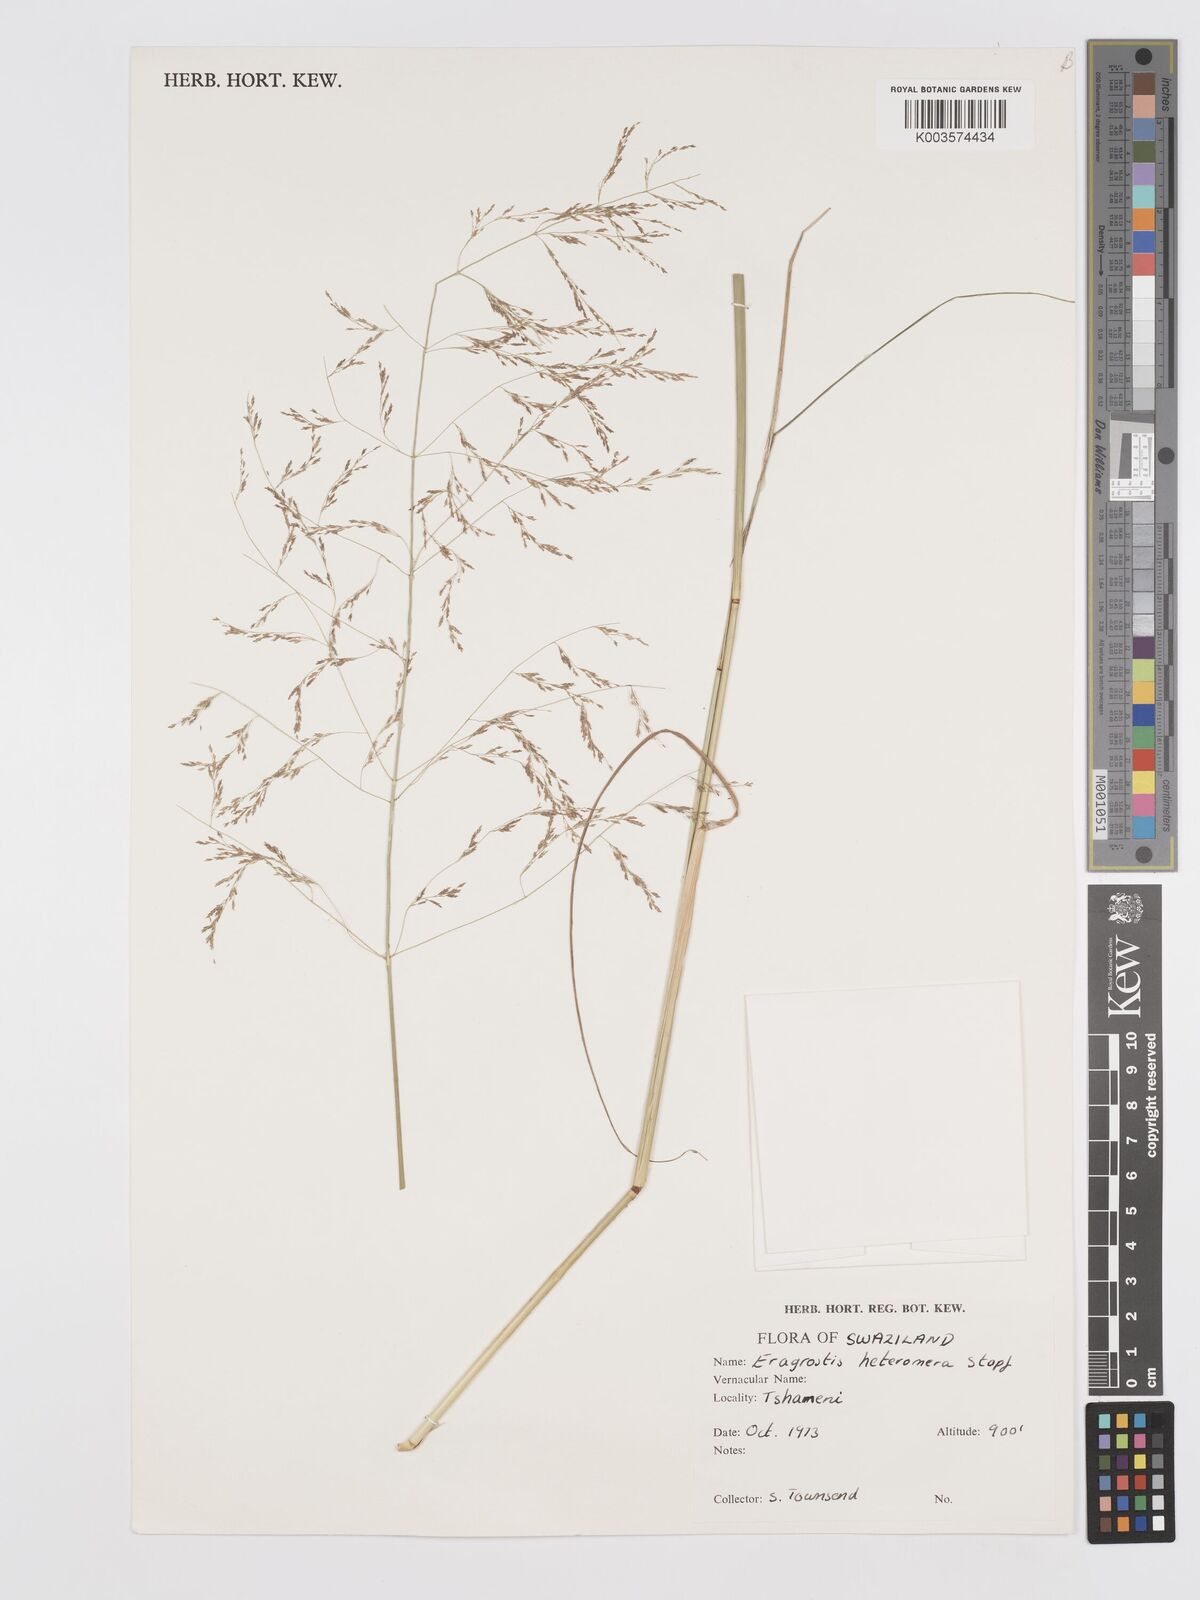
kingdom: Plantae
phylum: Tracheophyta
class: Liliopsida
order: Poales
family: Poaceae
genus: Eragrostis
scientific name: Eragrostis heteromera
